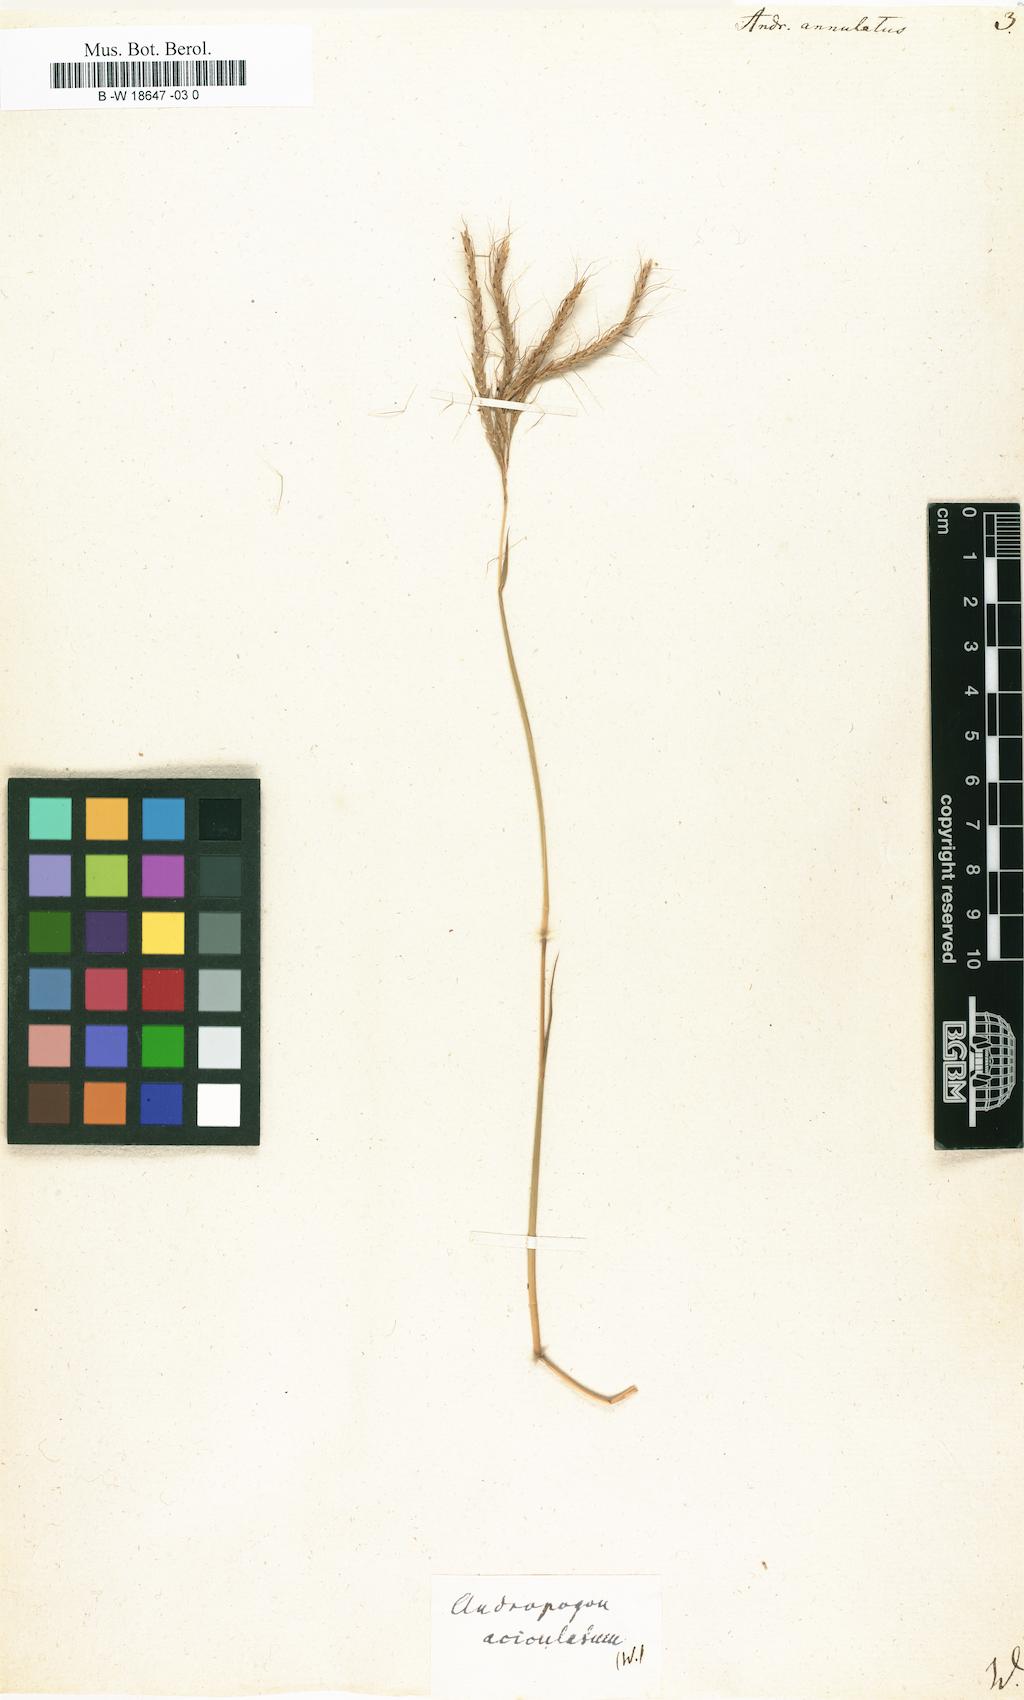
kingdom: Plantae
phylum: Tracheophyta
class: Liliopsida
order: Poales
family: Poaceae
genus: Andropogon
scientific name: Andropogon annulatus
